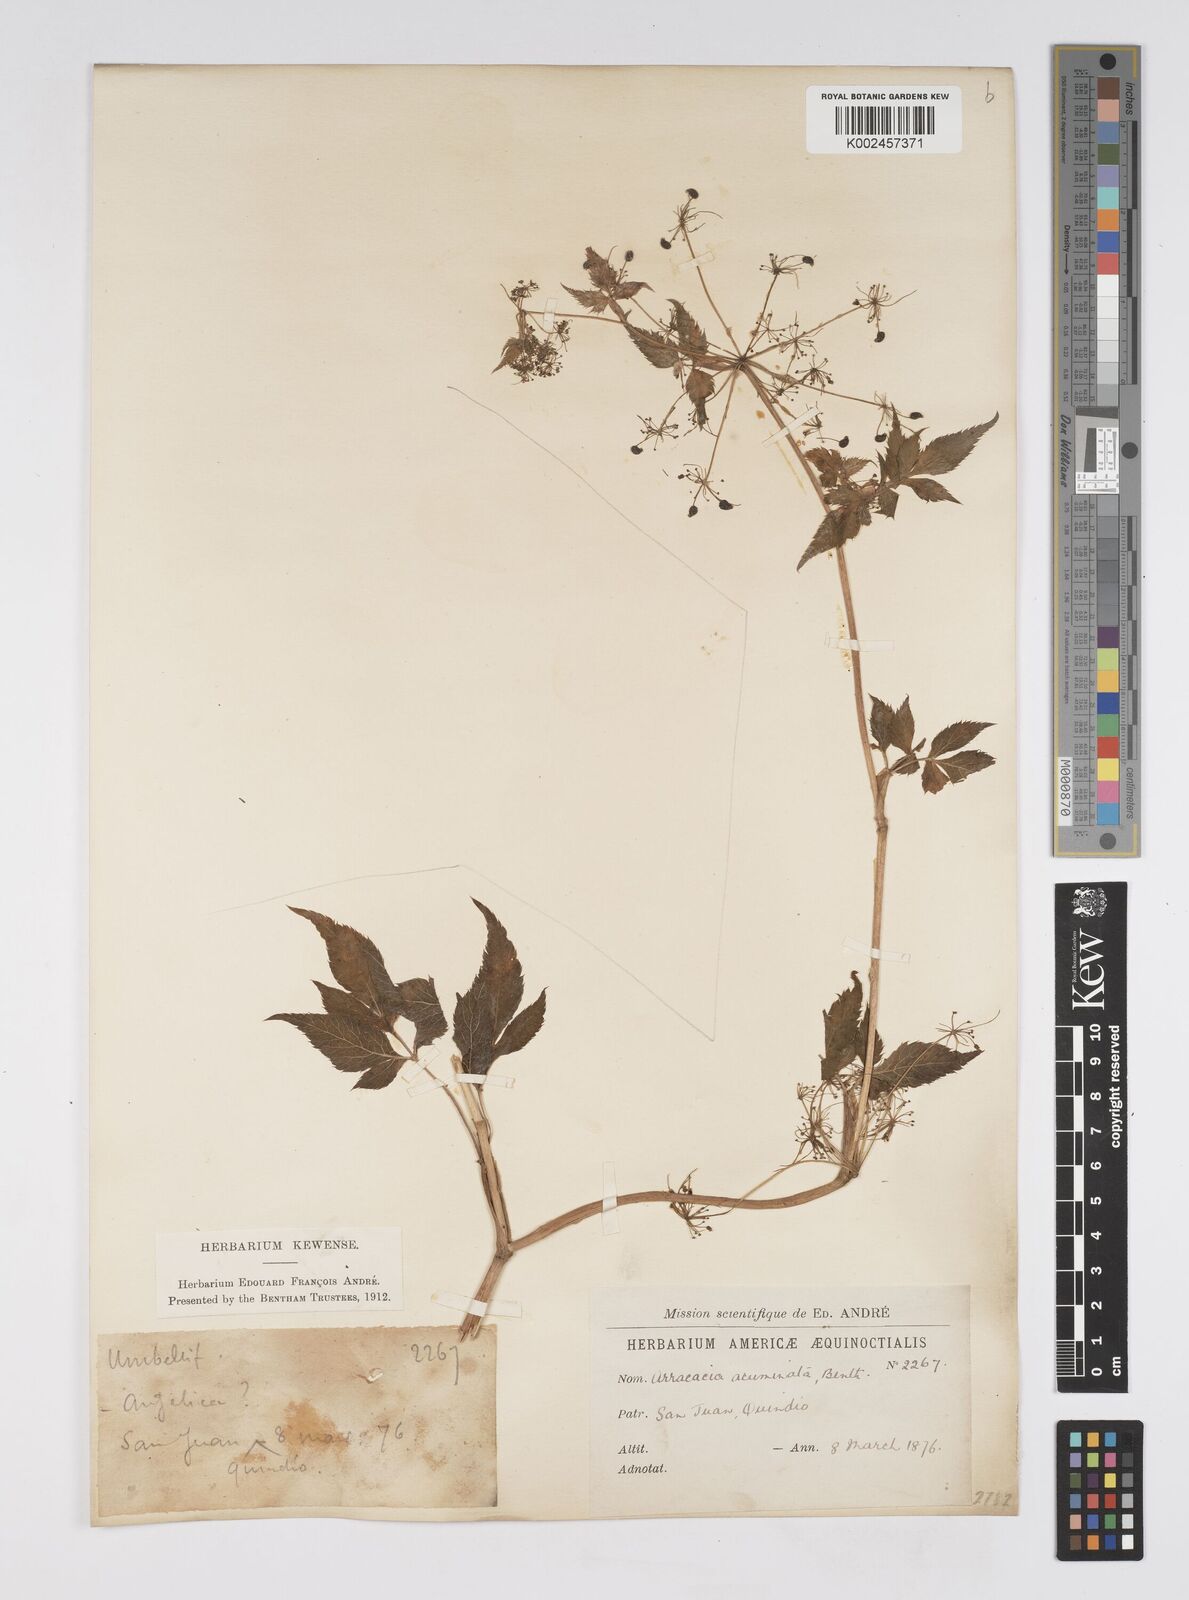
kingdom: Plantae
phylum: Tracheophyta
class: Magnoliopsida
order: Apiales
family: Apiaceae
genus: Neonelsonia
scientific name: Neonelsonia acuminata
